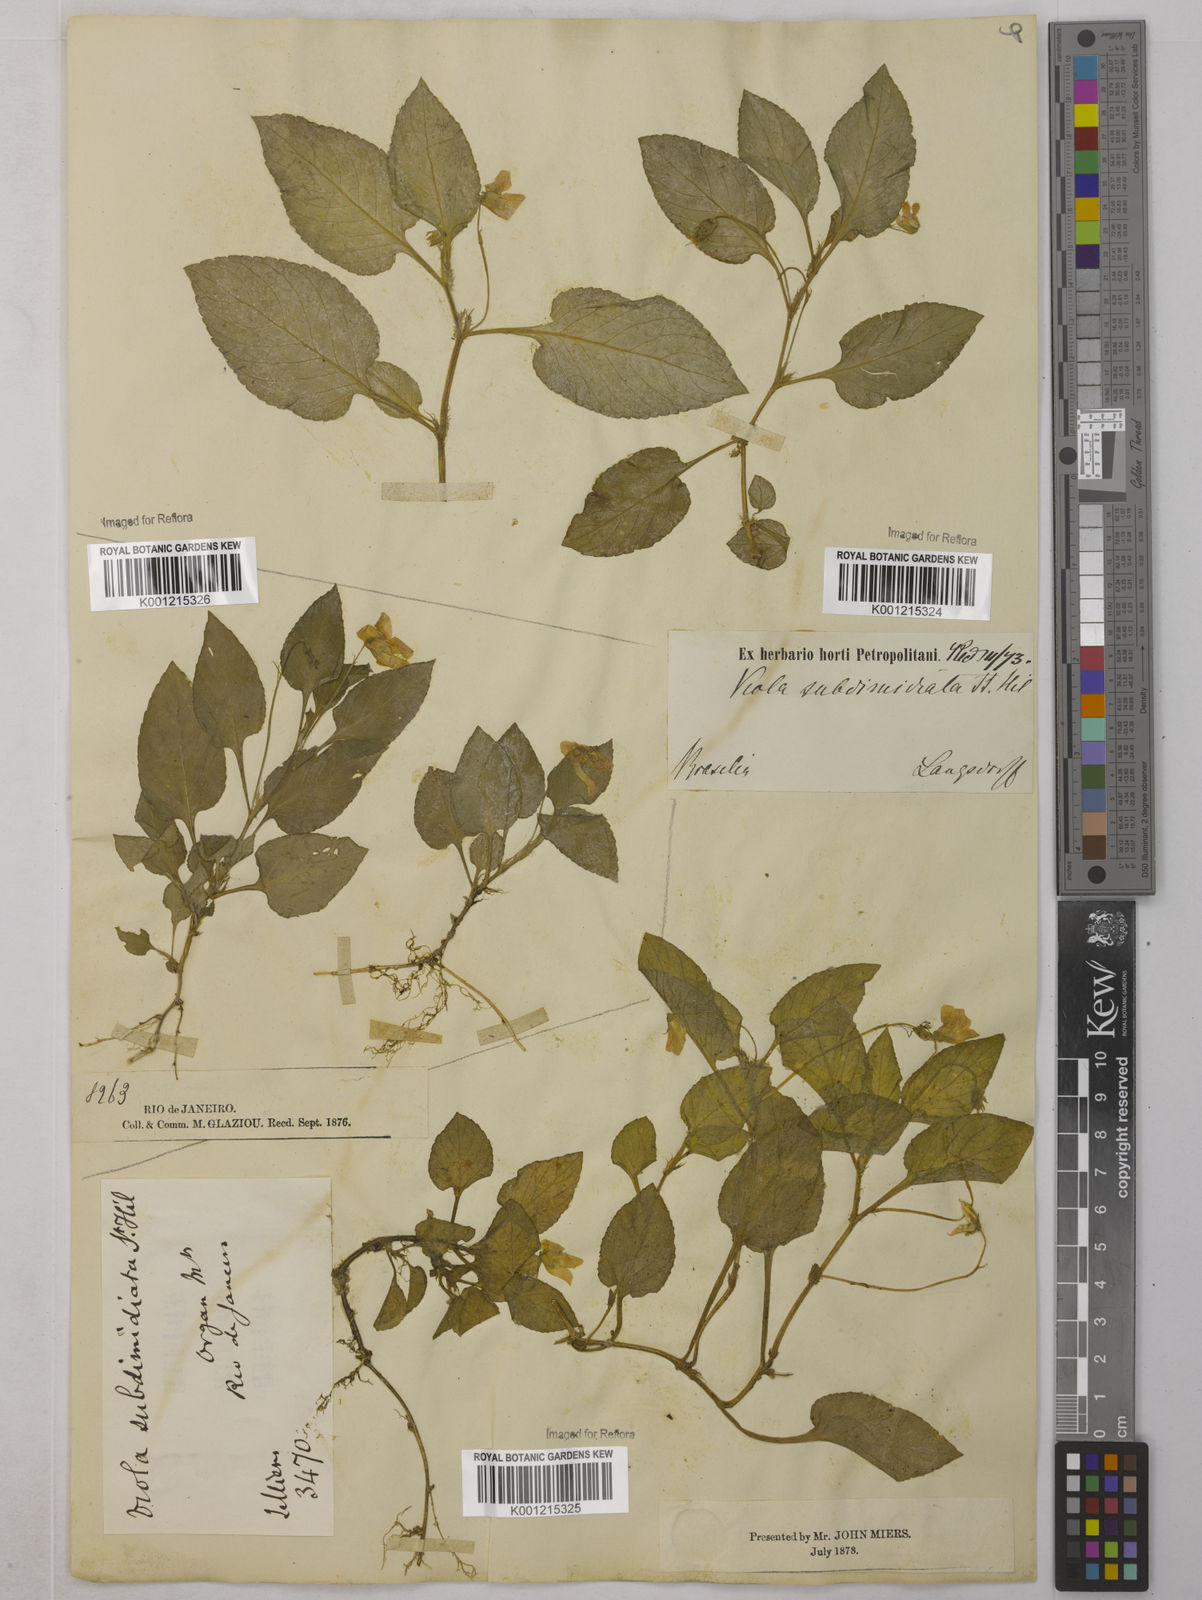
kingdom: Plantae
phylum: Tracheophyta
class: Magnoliopsida
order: Malpighiales
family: Violaceae
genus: Viola
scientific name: Viola subdimidiata
